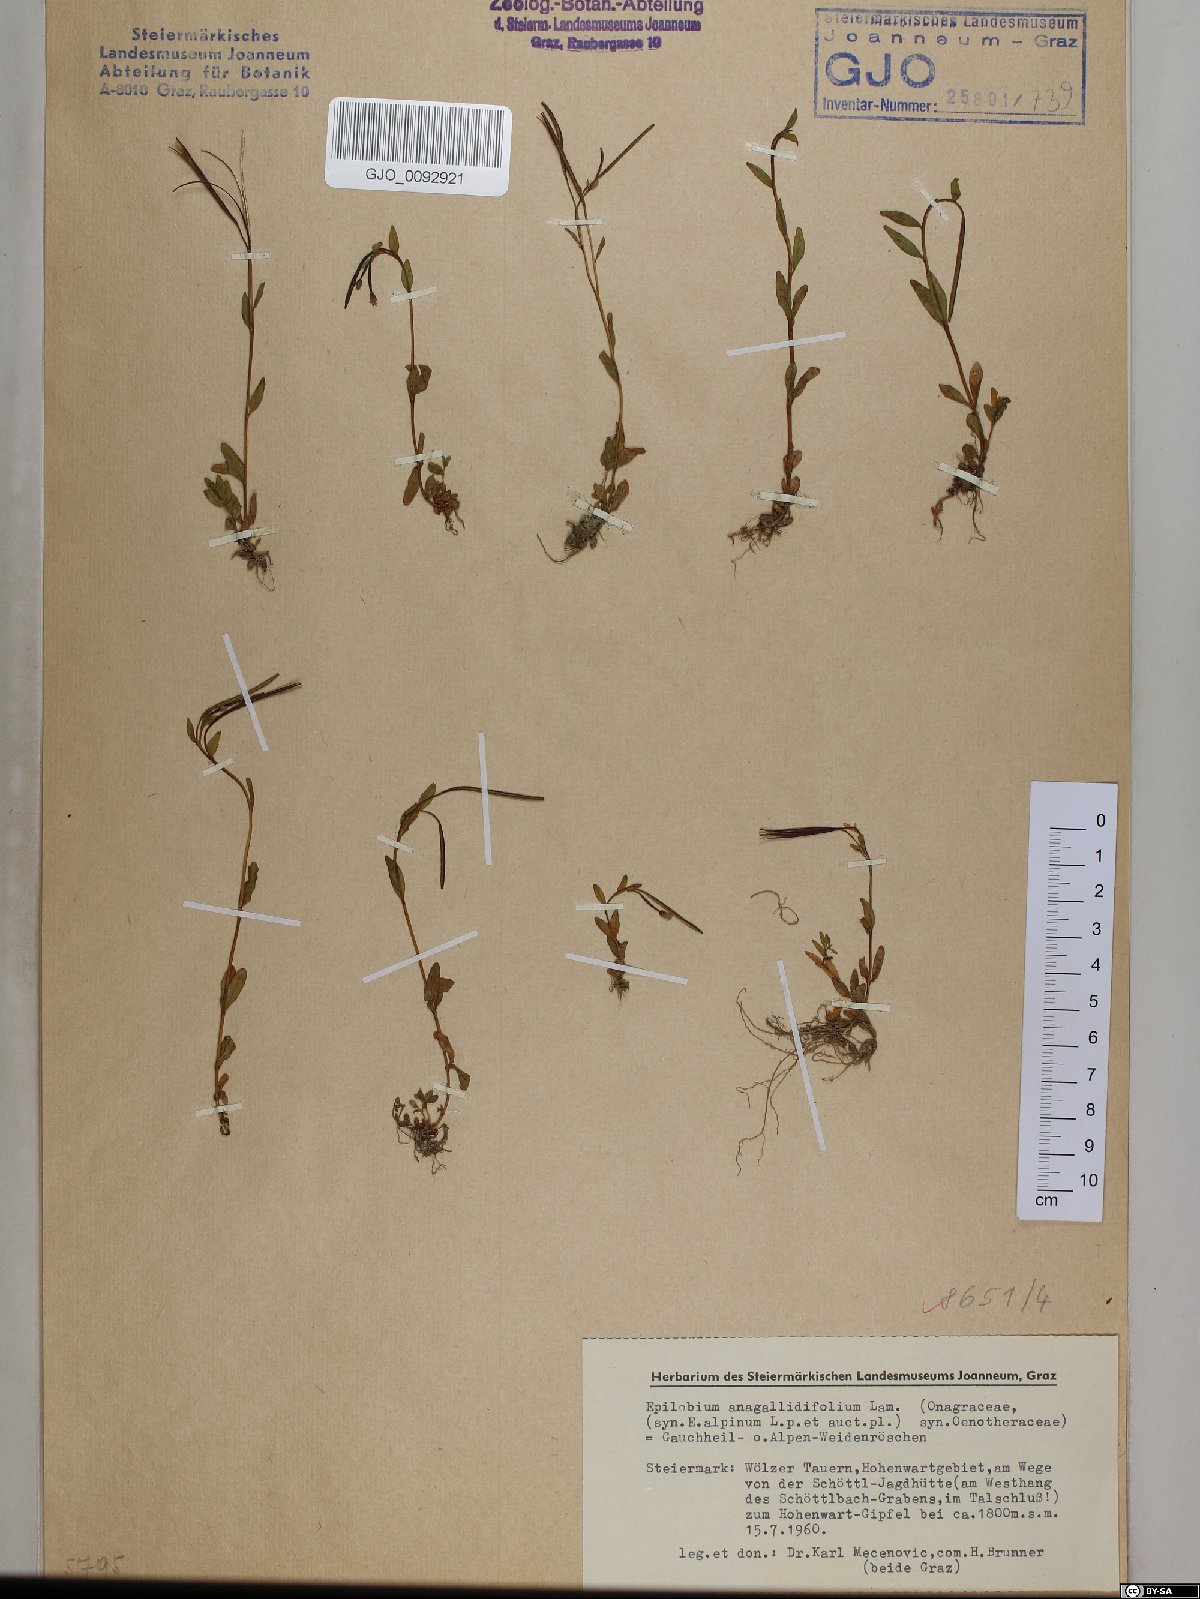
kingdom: Plantae
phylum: Tracheophyta
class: Magnoliopsida
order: Myrtales
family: Onagraceae
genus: Epilobium
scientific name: Epilobium anagallidifolium
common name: Alpine willowherb
